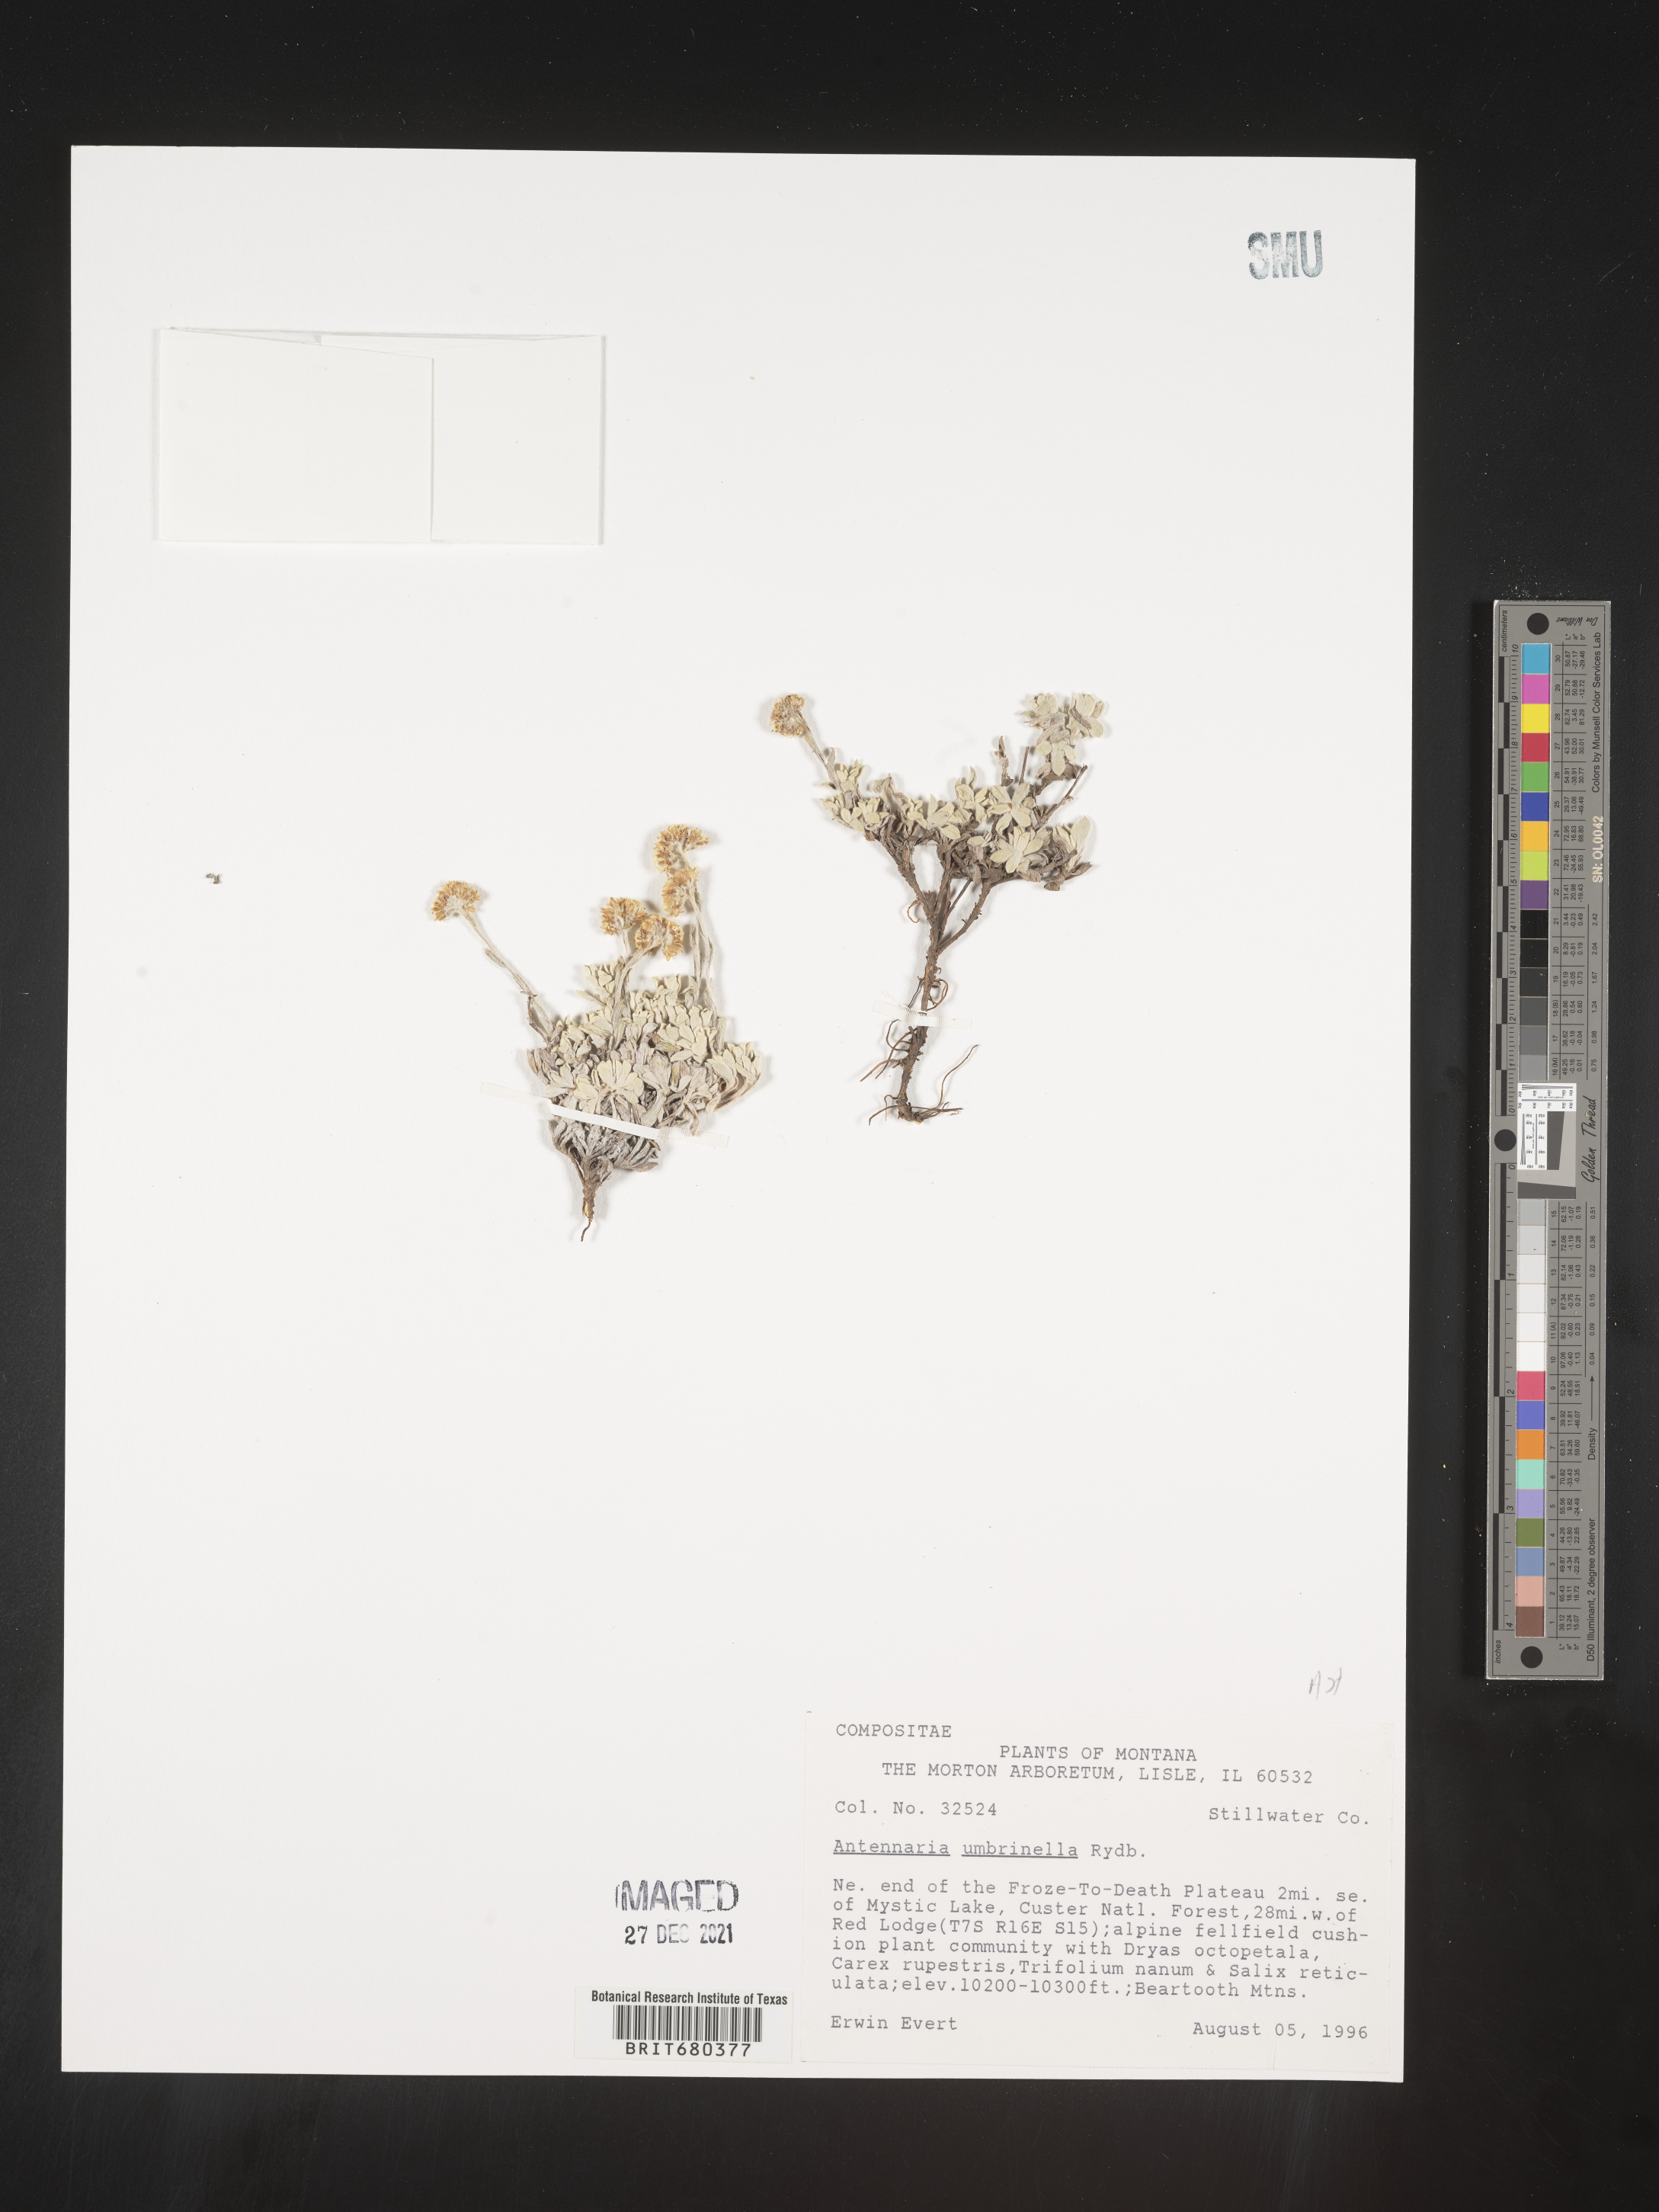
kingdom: Plantae
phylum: Tracheophyta
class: Magnoliopsida
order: Asterales
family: Asteraceae
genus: Antennaria
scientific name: Antennaria umbrinella
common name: Brown pussytoes
